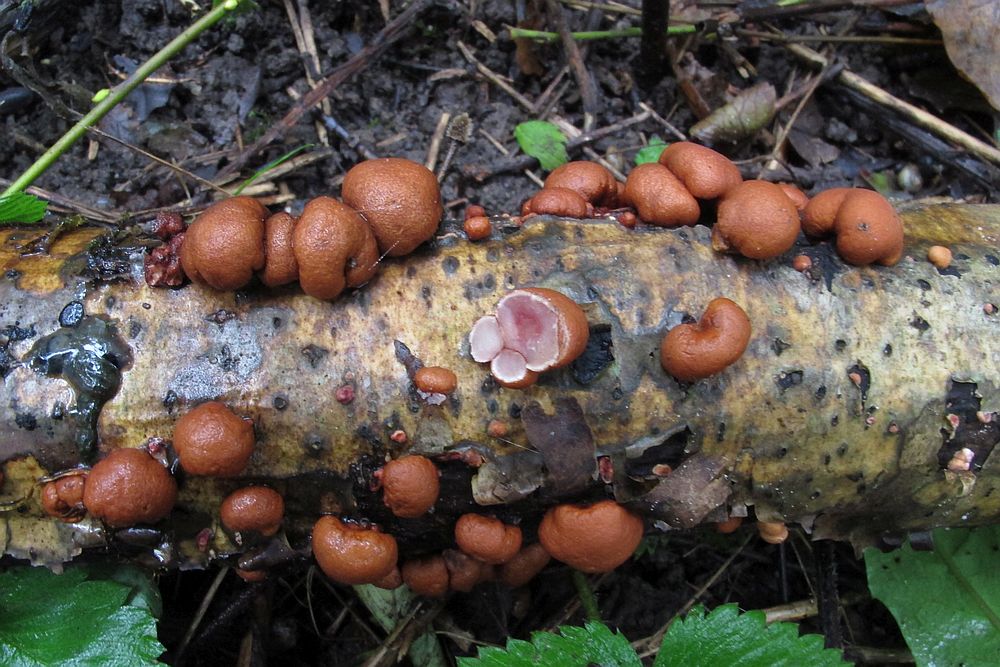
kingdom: Fungi
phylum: Ascomycota
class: Sordariomycetes
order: Hypocreales
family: Hypocreaceae
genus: Trichoderma
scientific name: Trichoderma europaeum
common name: rosabrun kødkerne
